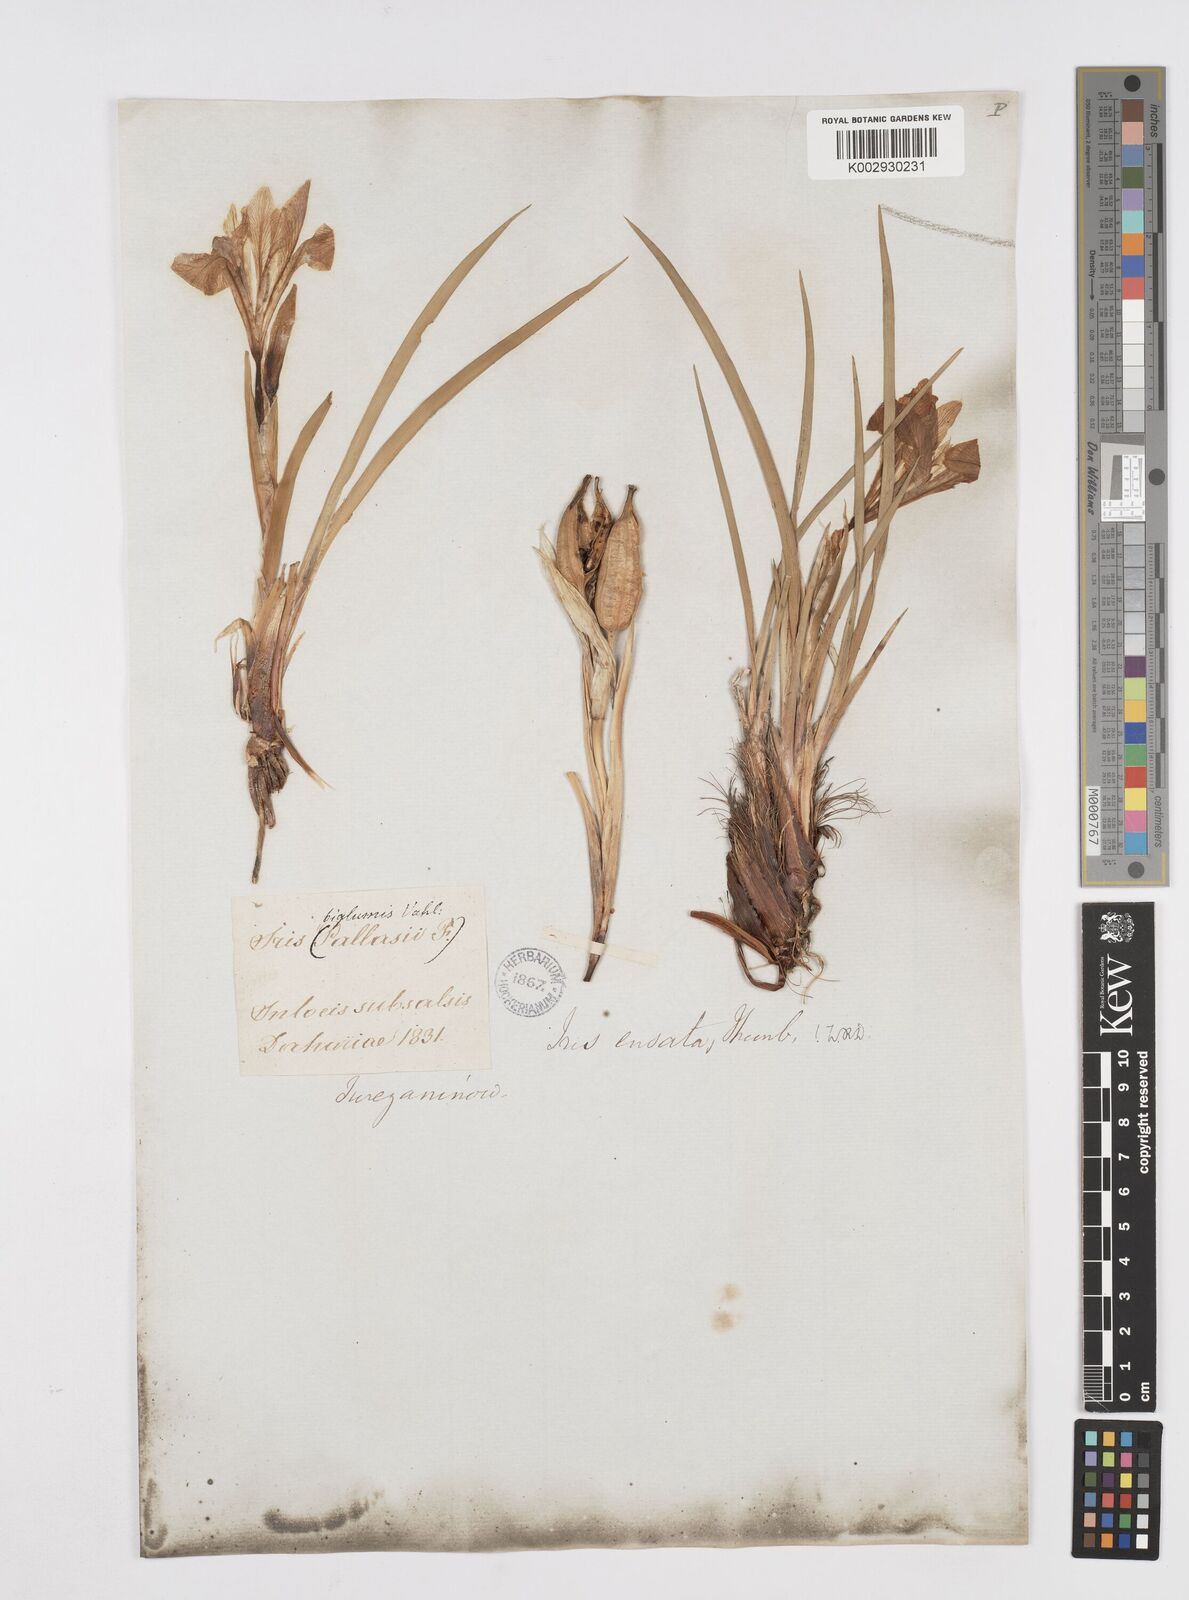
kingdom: Plantae
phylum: Tracheophyta
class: Liliopsida
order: Asparagales
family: Iridaceae
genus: Iris
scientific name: Iris ensata
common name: Beaked iris
